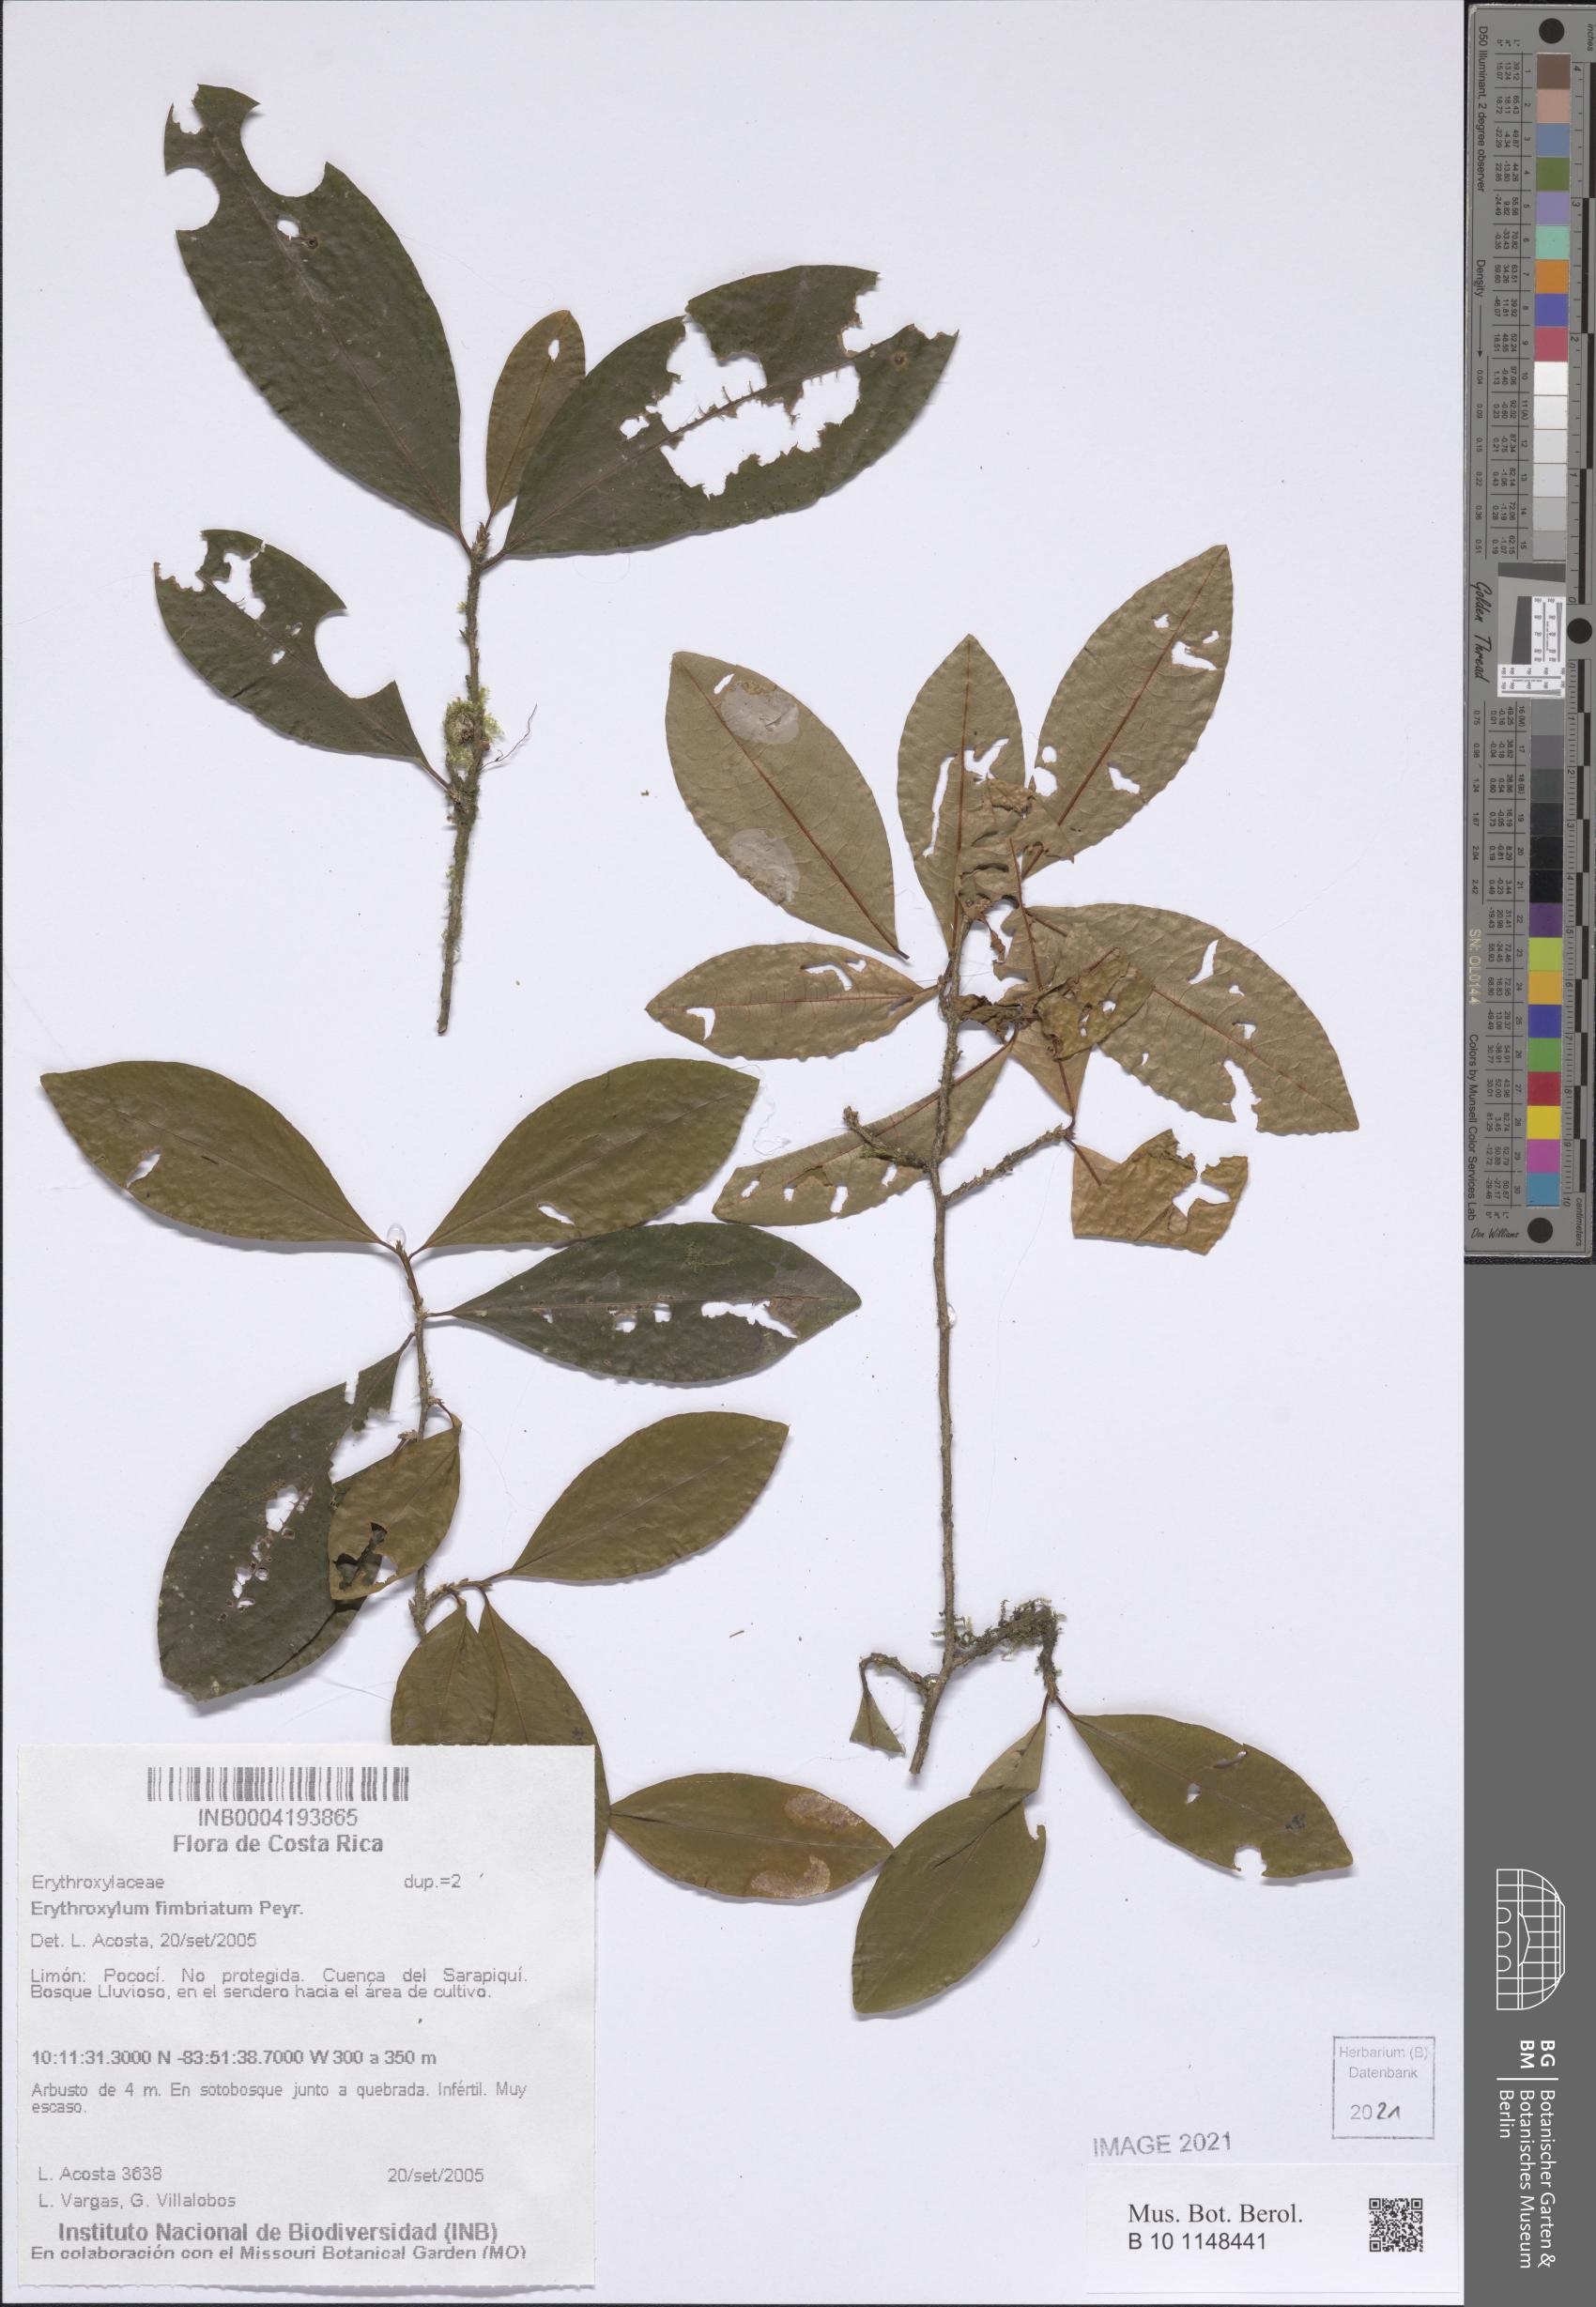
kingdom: Plantae
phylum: Tracheophyta
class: Magnoliopsida
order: Malpighiales
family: Erythroxylaceae
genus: Erythroxylum
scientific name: Erythroxylum fimbriatum
